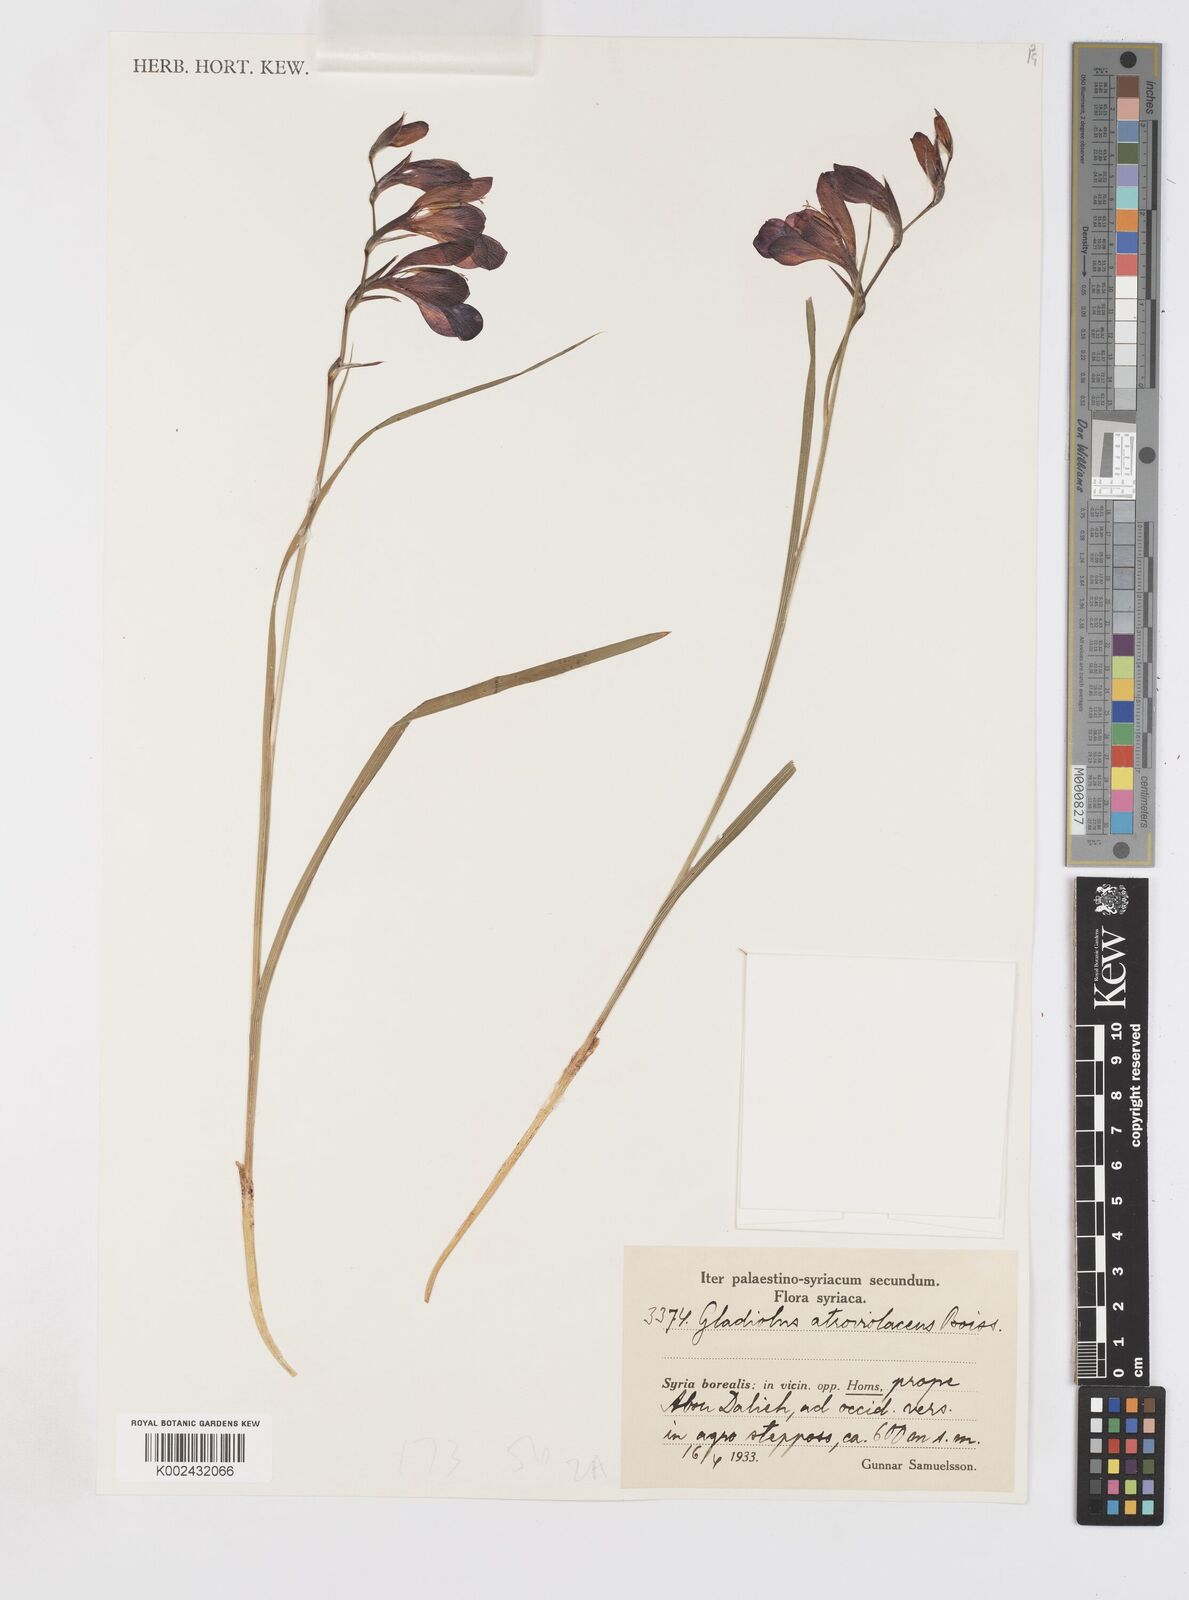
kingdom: Plantae
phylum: Tracheophyta
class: Liliopsida
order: Asparagales
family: Iridaceae
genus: Gladiolus
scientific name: Gladiolus atroviolaceus
